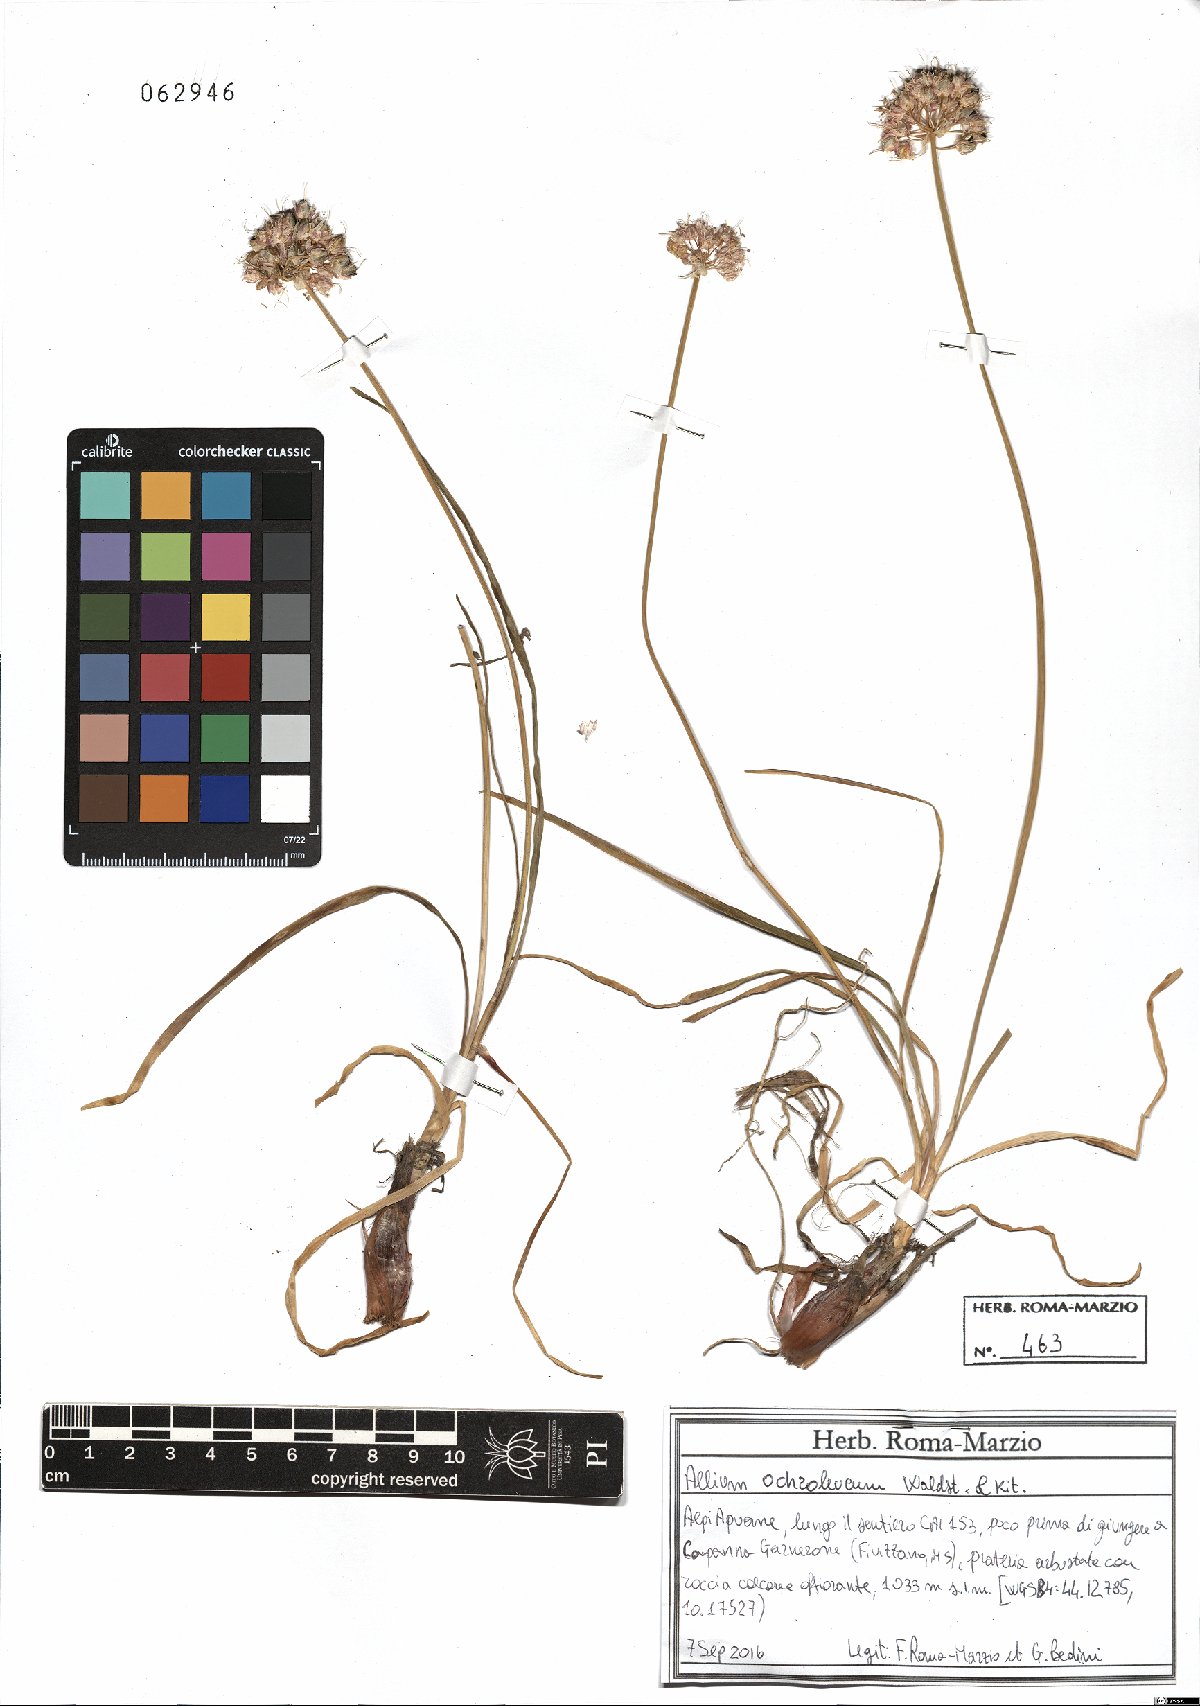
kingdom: Plantae
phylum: Tracheophyta
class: Liliopsida
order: Asparagales
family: Amaryllidaceae
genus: Allium
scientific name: Allium ericetorum
